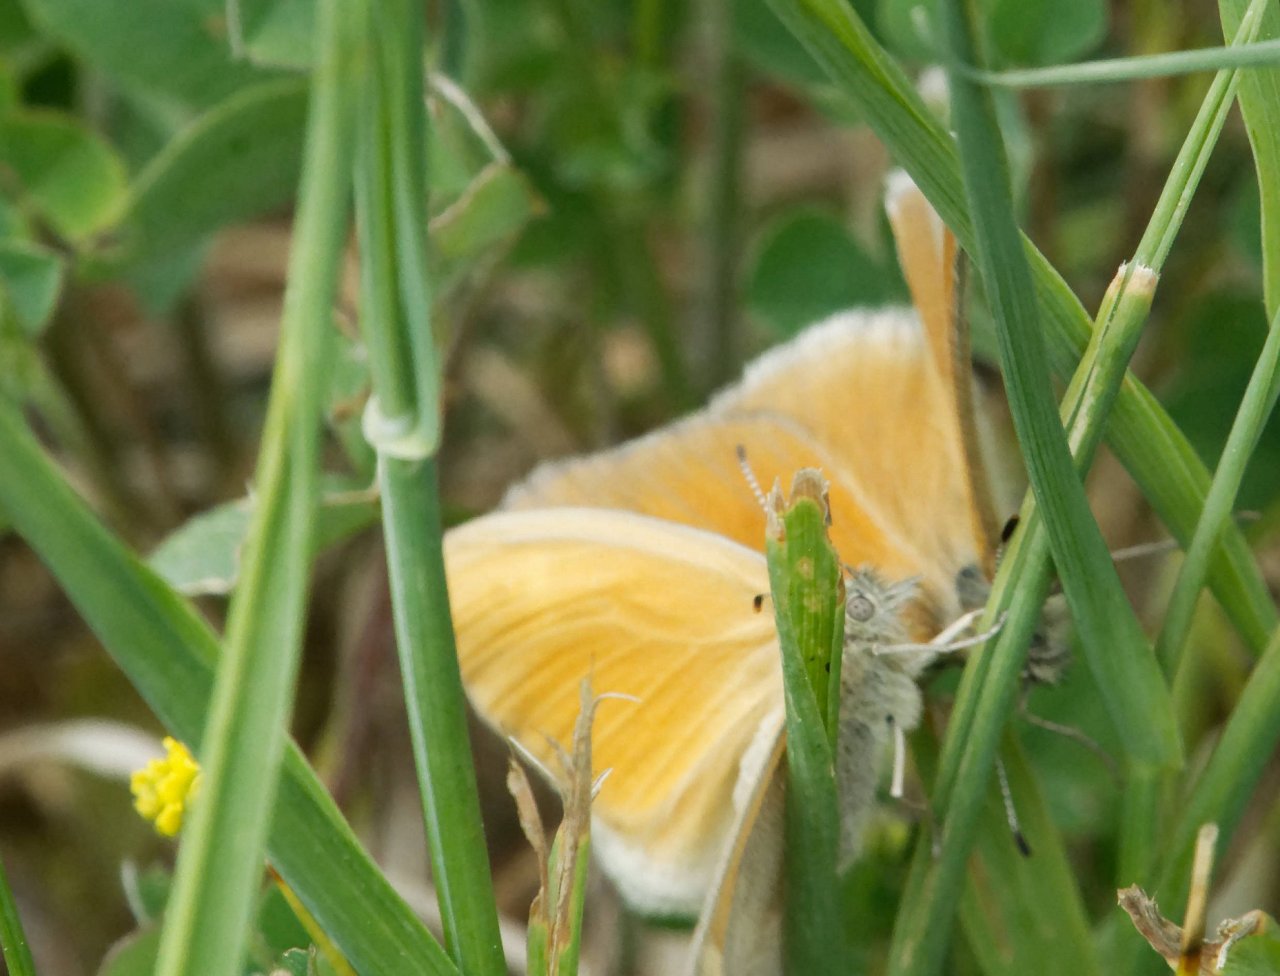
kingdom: Animalia
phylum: Arthropoda
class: Insecta
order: Lepidoptera
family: Nymphalidae
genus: Coenonympha
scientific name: Coenonympha tullia
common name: Large Heath
